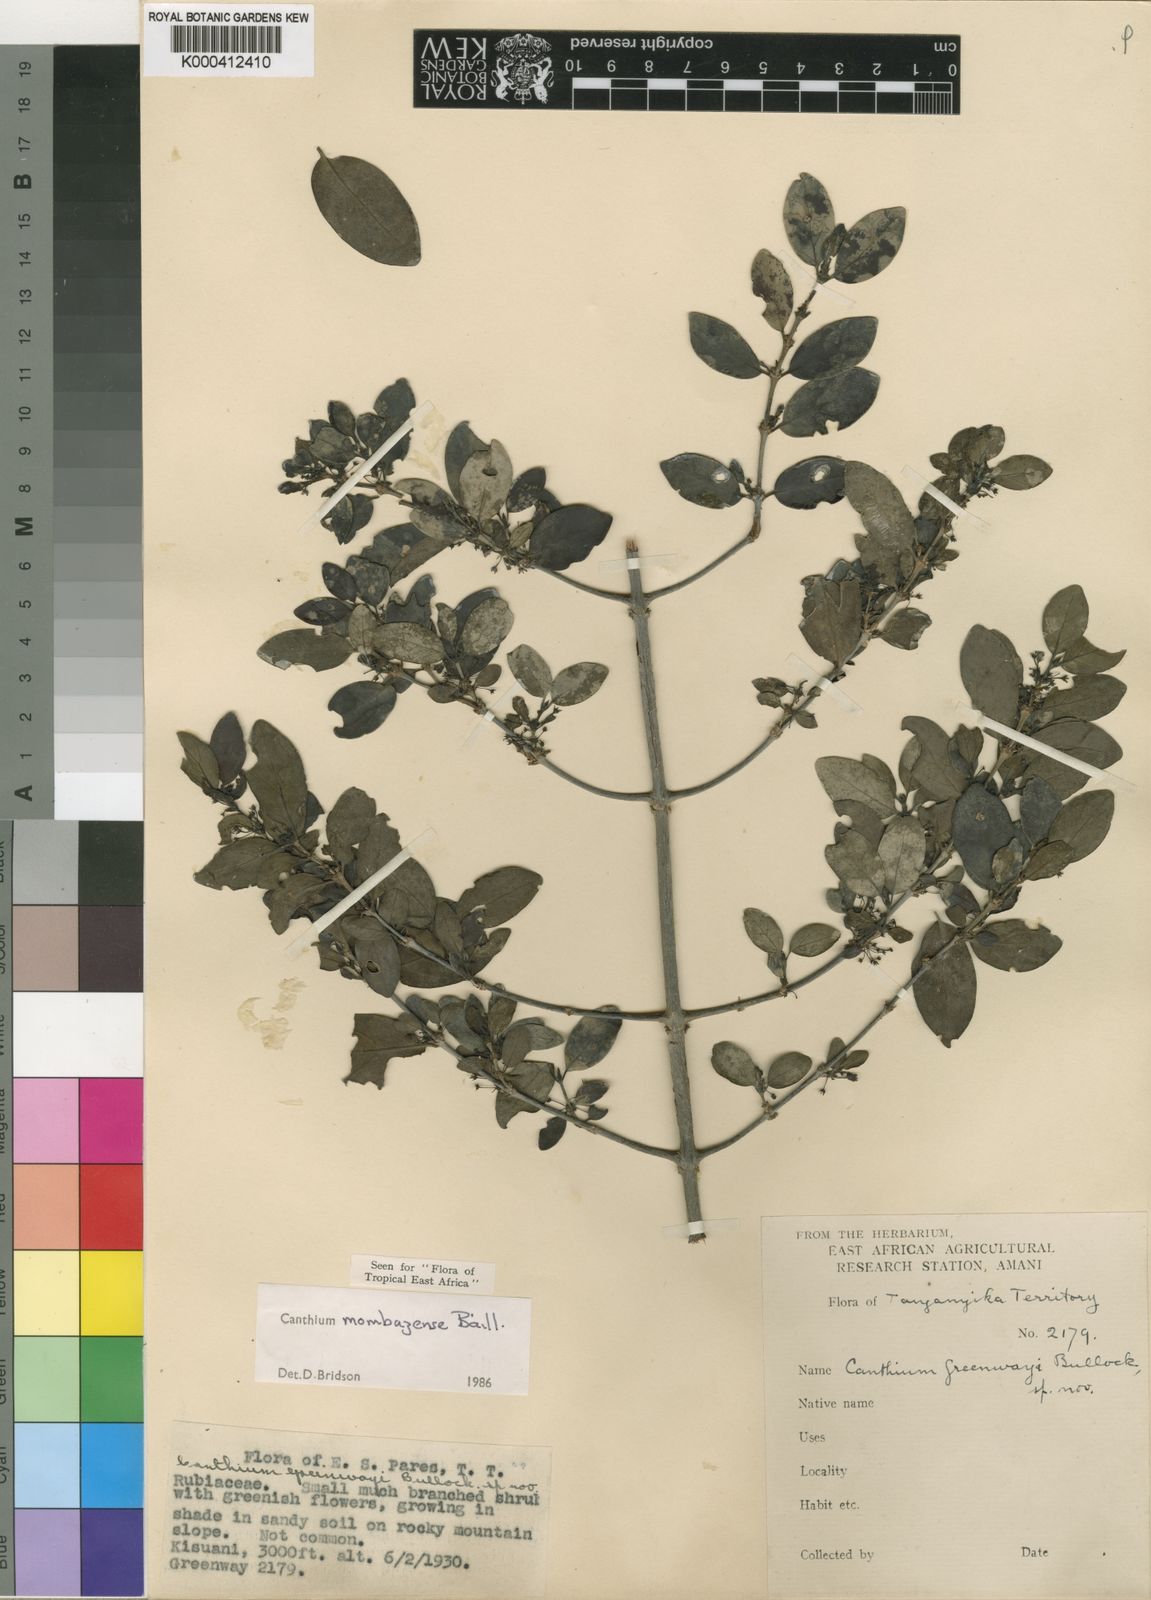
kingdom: Plantae
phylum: Tracheophyta
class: Magnoliopsida
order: Gentianales
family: Rubiaceae
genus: Bullockia
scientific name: Bullockia mombazensis
